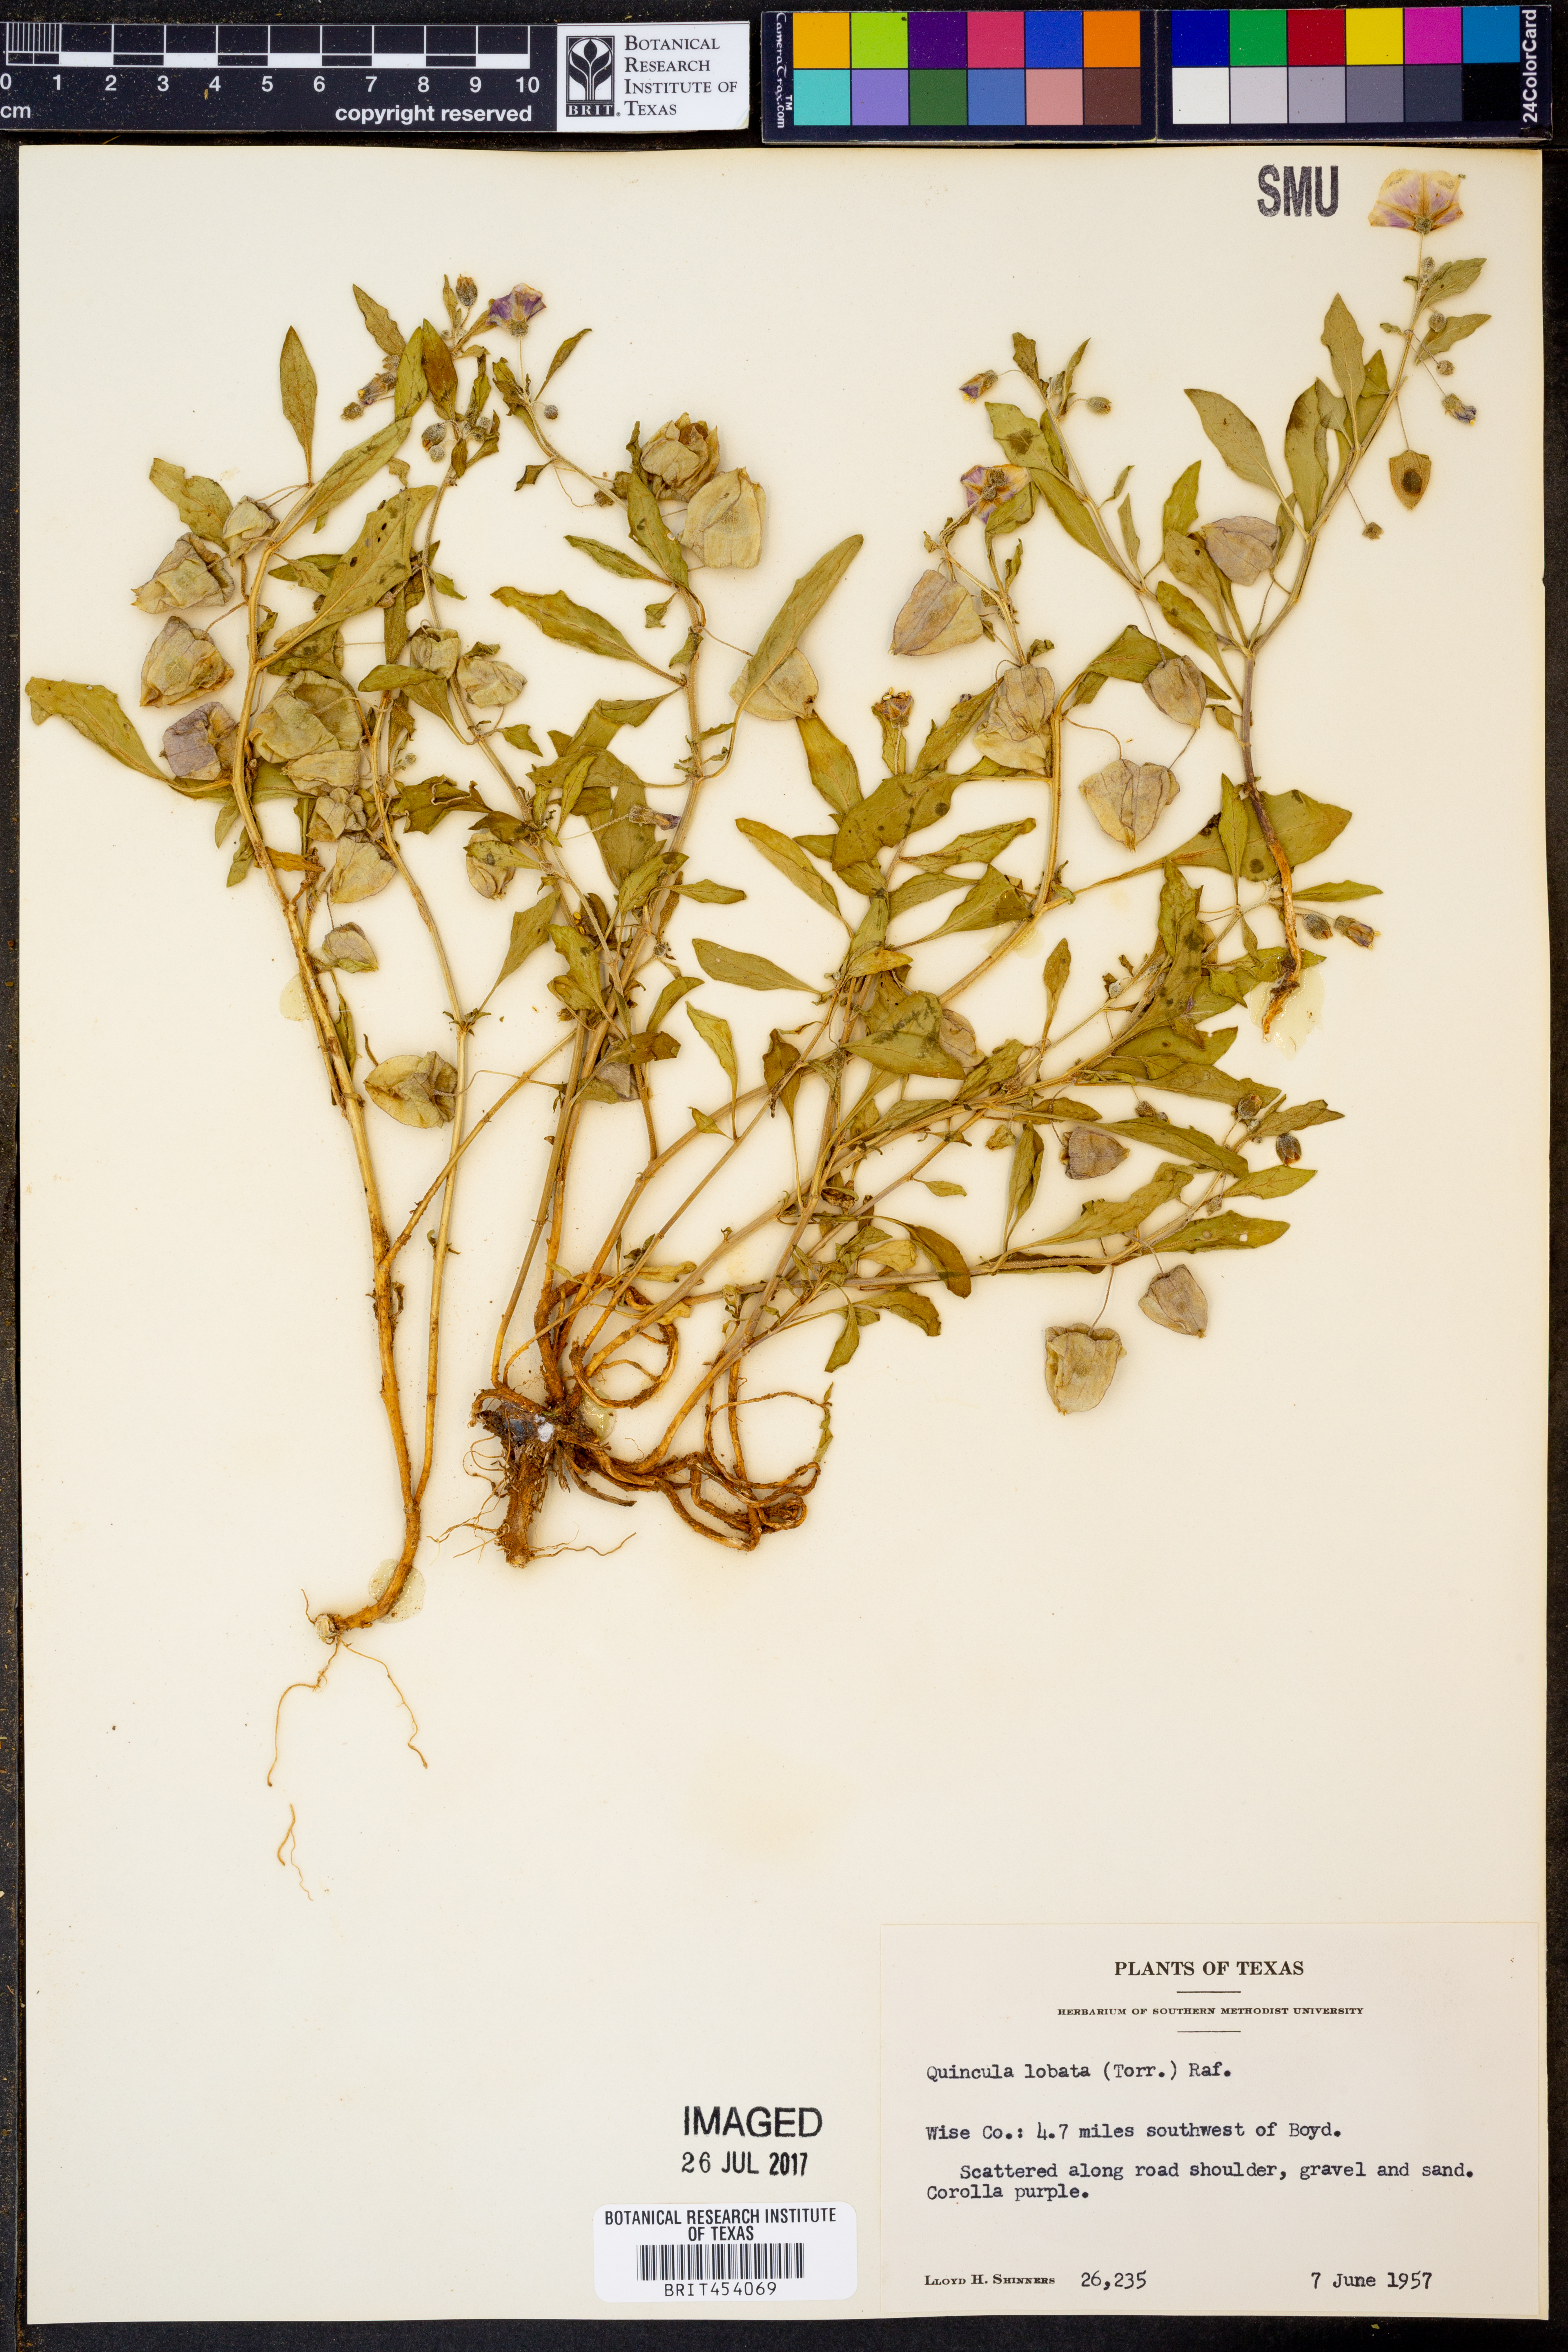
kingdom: Plantae
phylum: Tracheophyta
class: Magnoliopsida
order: Solanales
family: Solanaceae
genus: Quincula
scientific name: Quincula lobata
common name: Purple-ground-cherry
